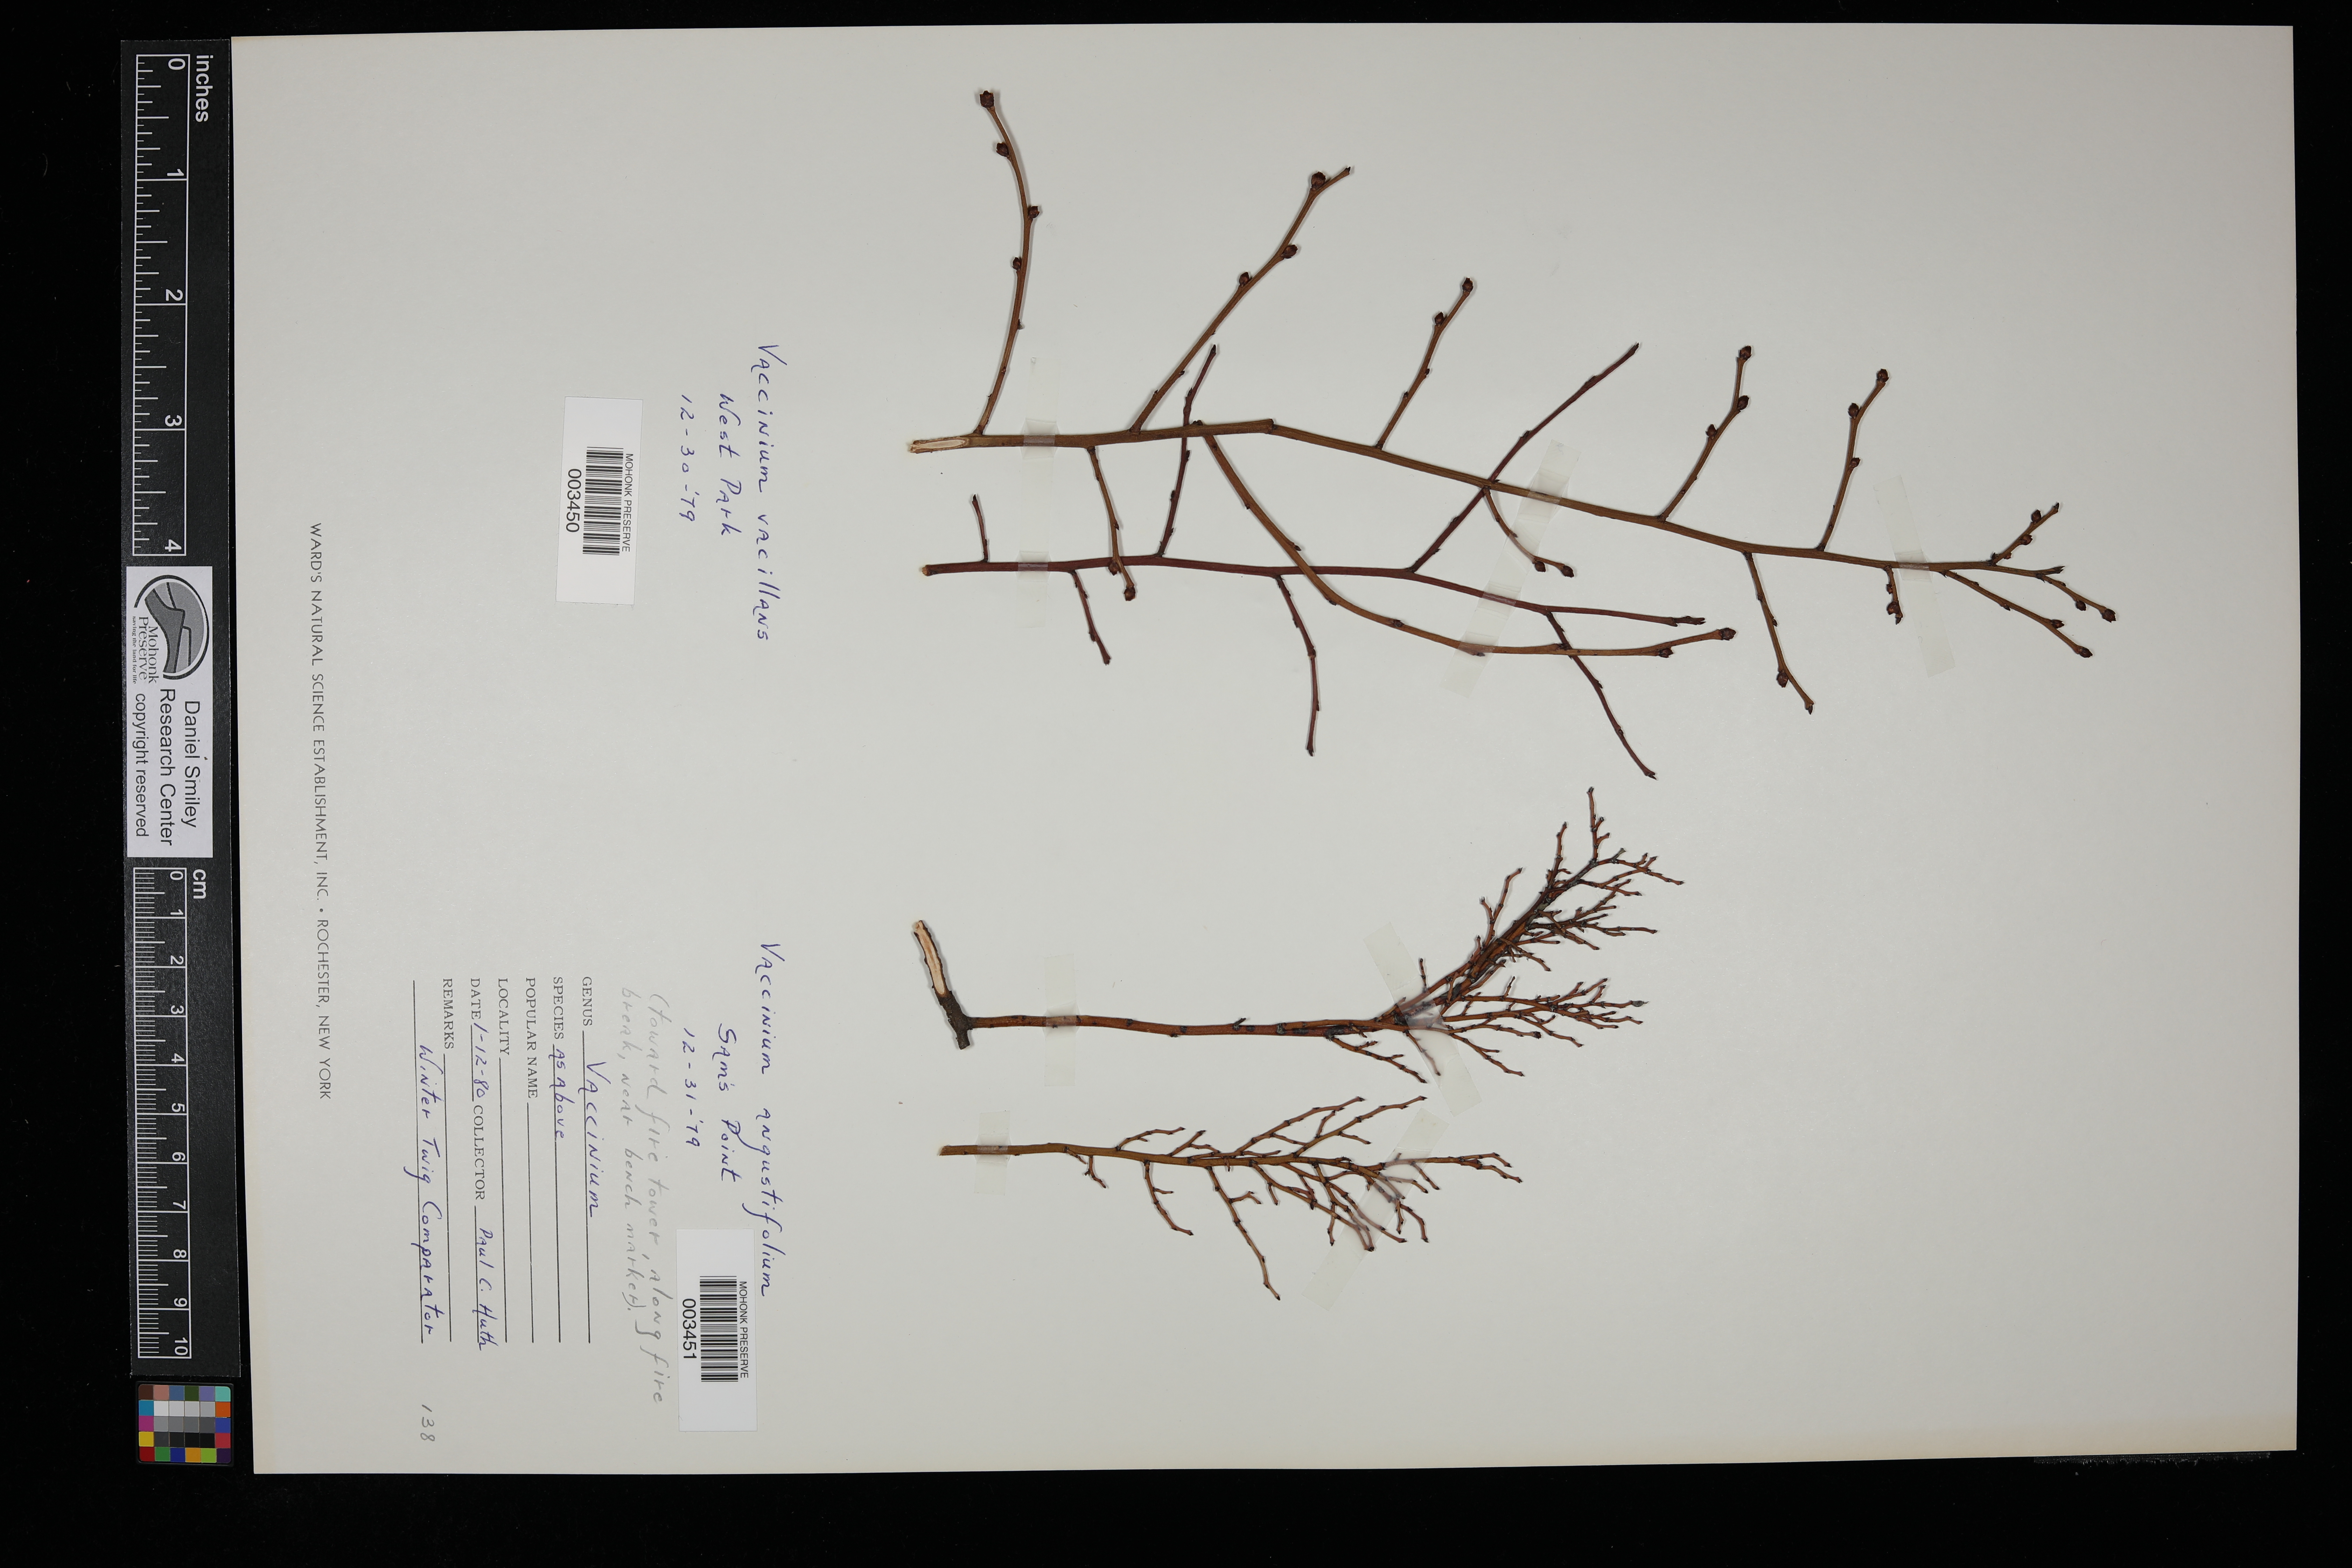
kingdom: Plantae
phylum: Tracheophyta
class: Magnoliopsida
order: Ericales
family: Ericaceae
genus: Vaccinium
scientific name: Vaccinium pallidum
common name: Blue ridge blueberry
